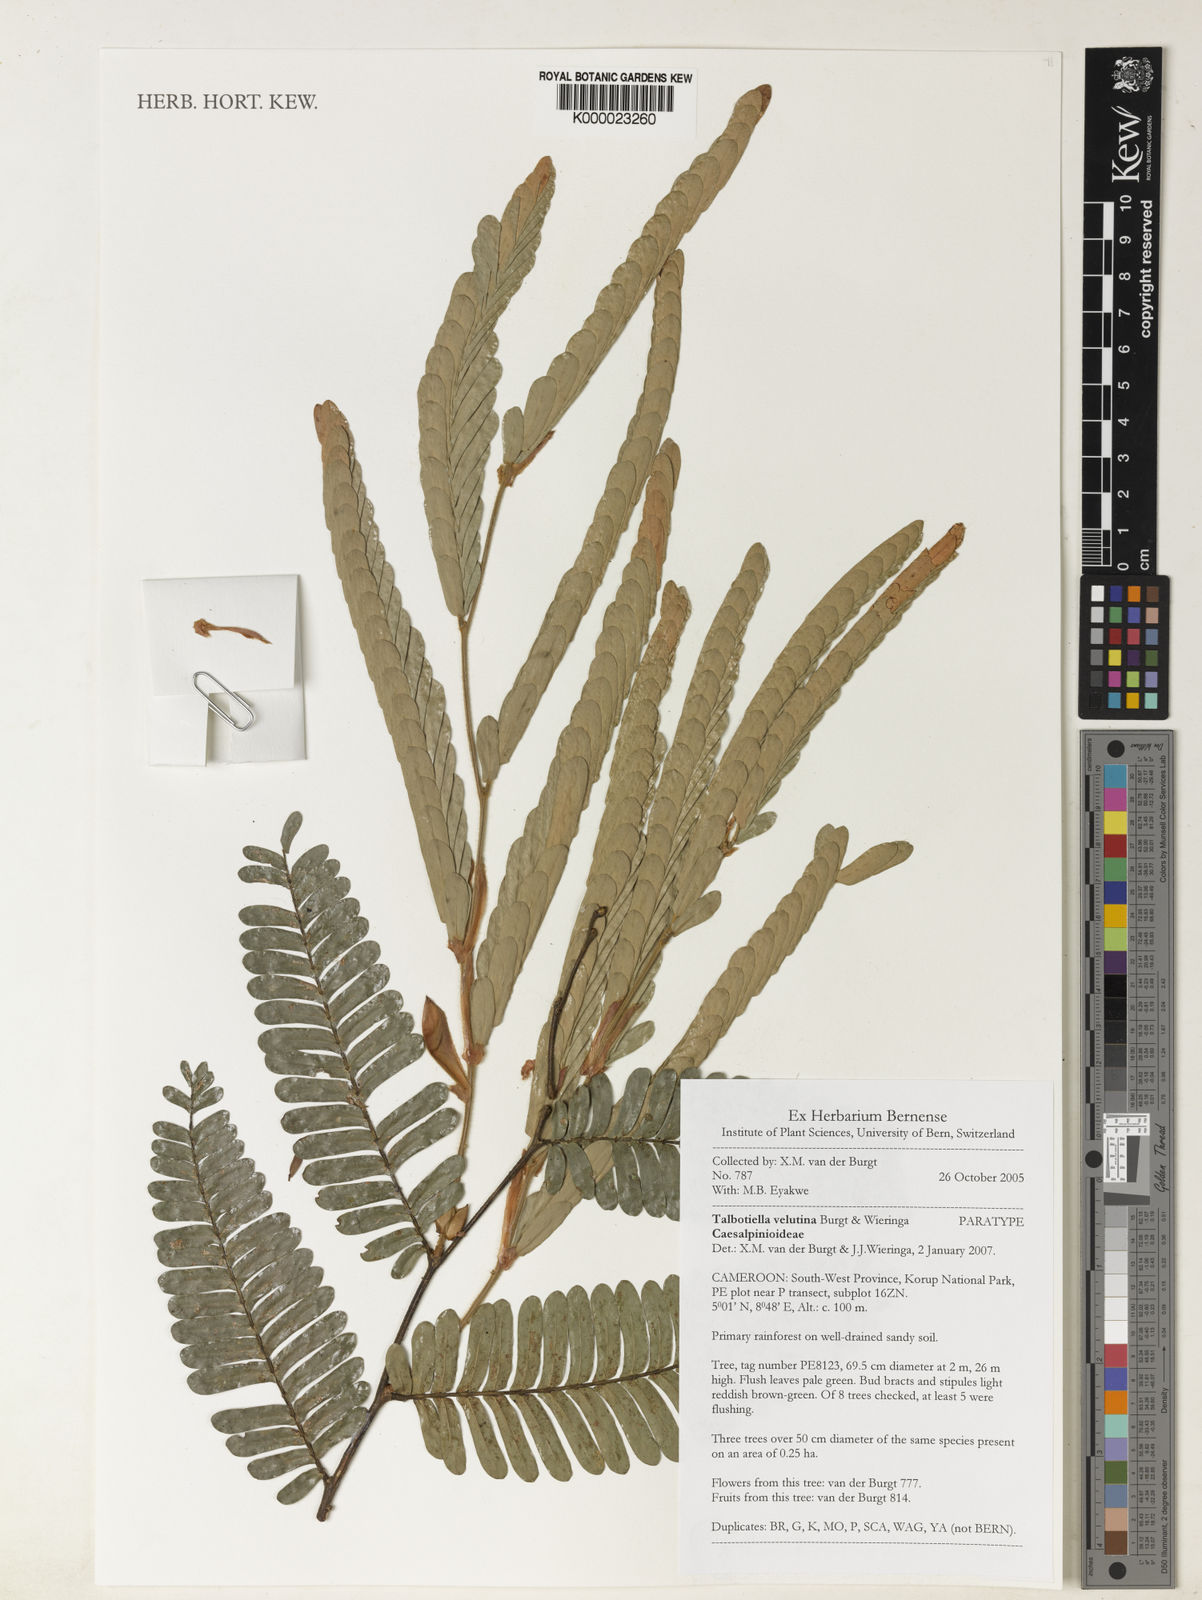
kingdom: Plantae
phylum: Tracheophyta
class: Magnoliopsida
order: Fabales
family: Fabaceae
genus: Talbotiella
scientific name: Talbotiella velutina
